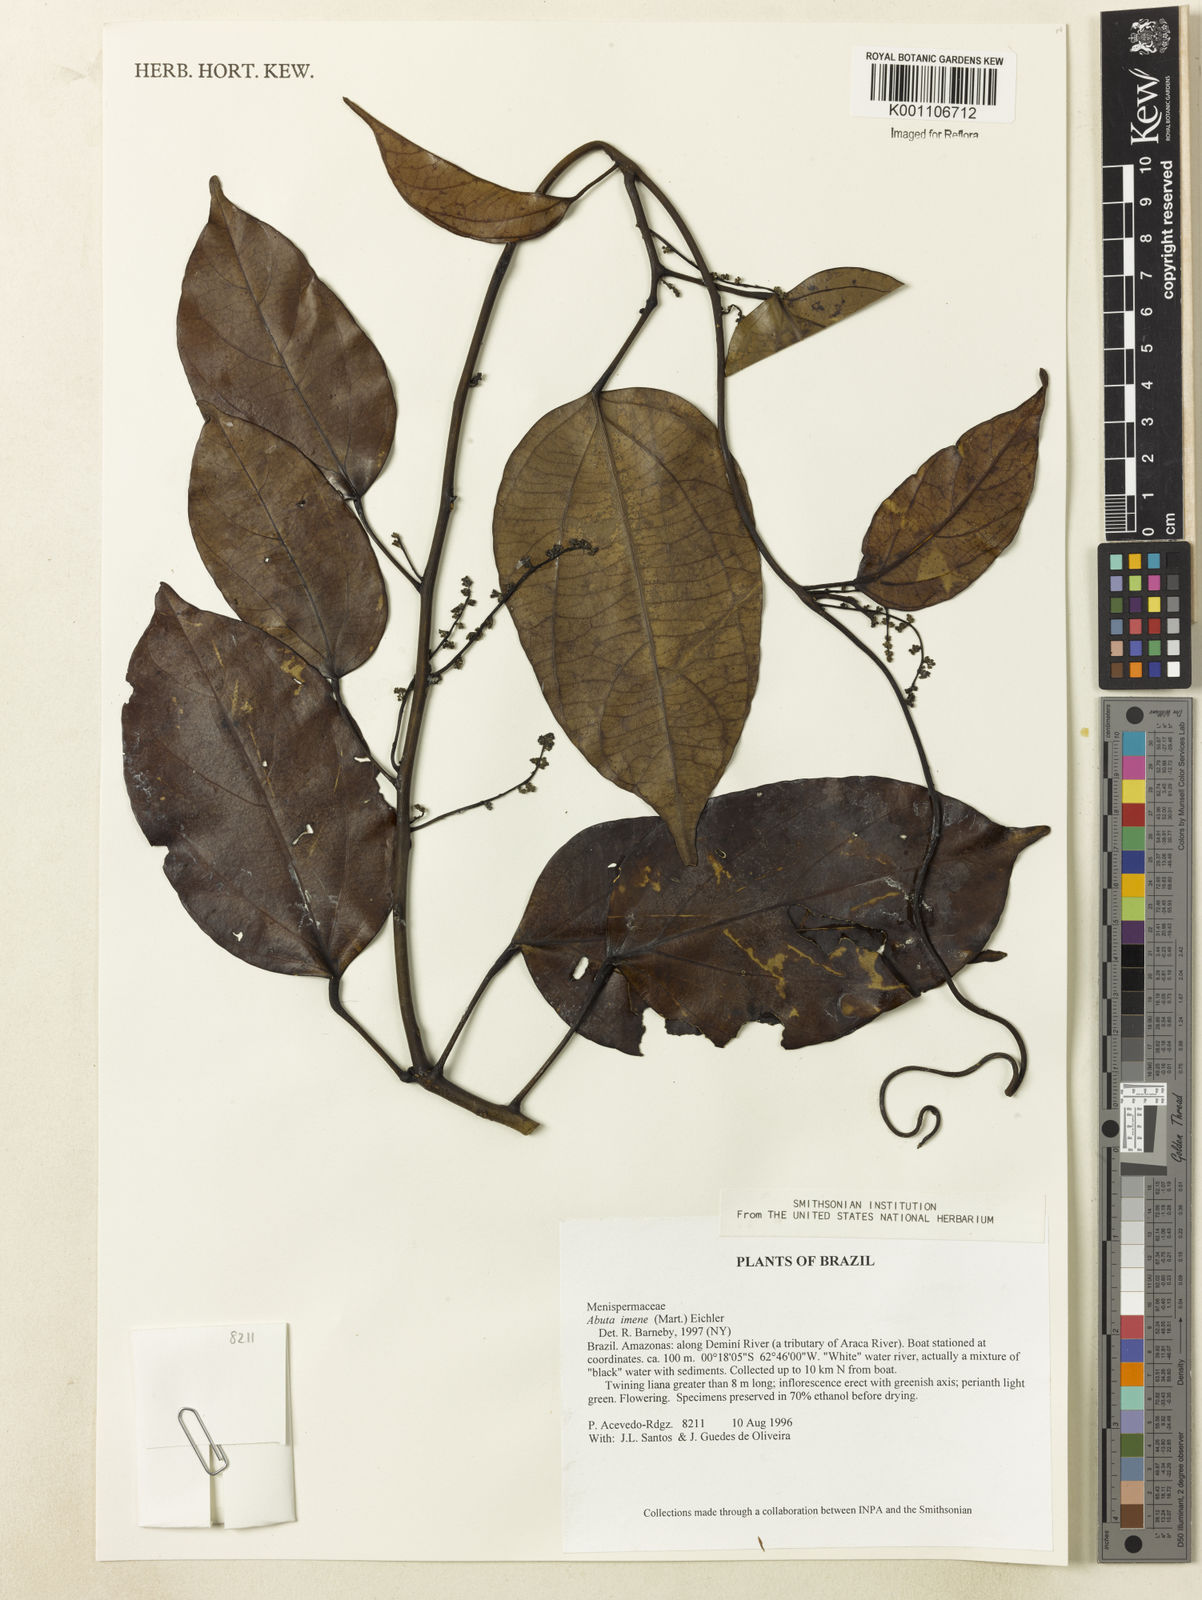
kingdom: Plantae
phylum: Tracheophyta
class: Magnoliopsida
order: Ranunculales
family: Menispermaceae
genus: Abuta
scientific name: Abuta imene
